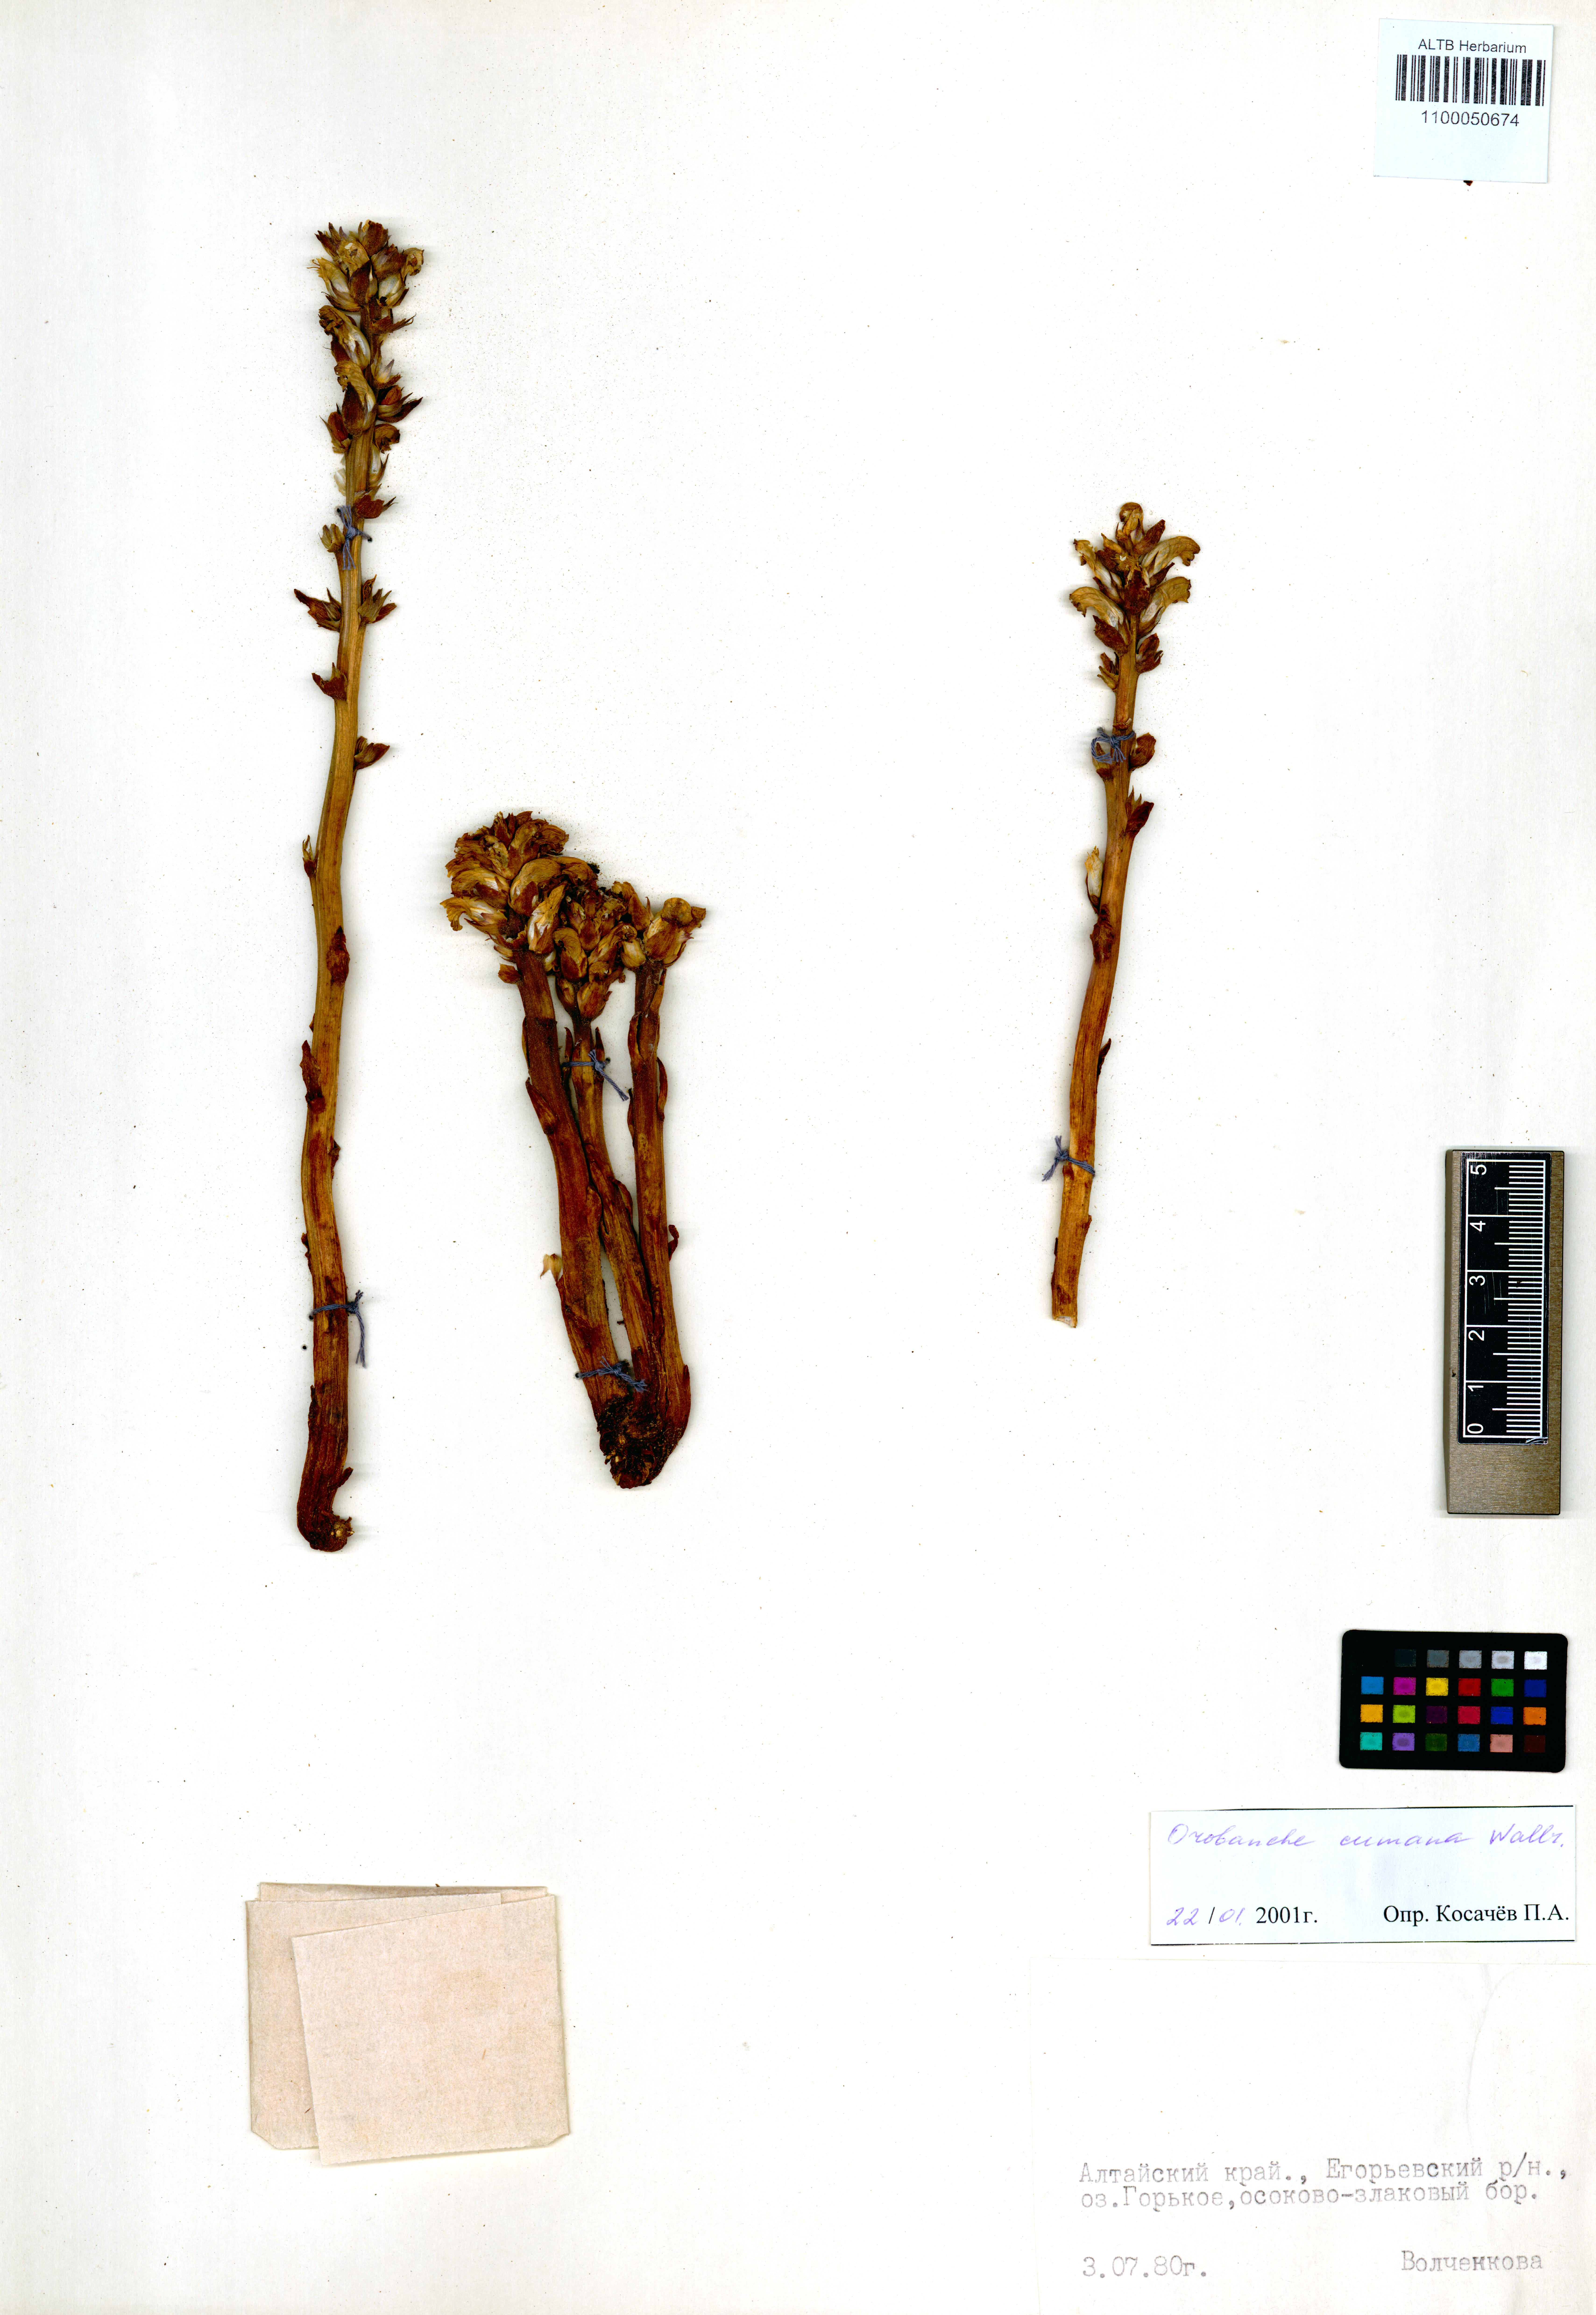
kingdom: Plantae
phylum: Tracheophyta
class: Magnoliopsida
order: Lamiales
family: Orobanchaceae
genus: Orobanche
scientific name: Orobanche cumana
